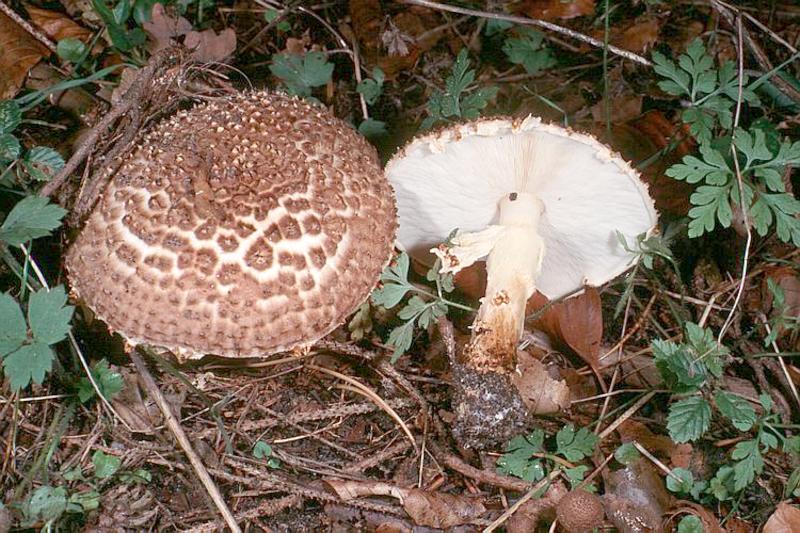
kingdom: Fungi
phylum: Basidiomycota
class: Agaricomycetes
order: Agaricales
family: Agaricaceae
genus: Echinoderma
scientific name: Echinoderma asperum
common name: Freckled dapperling
